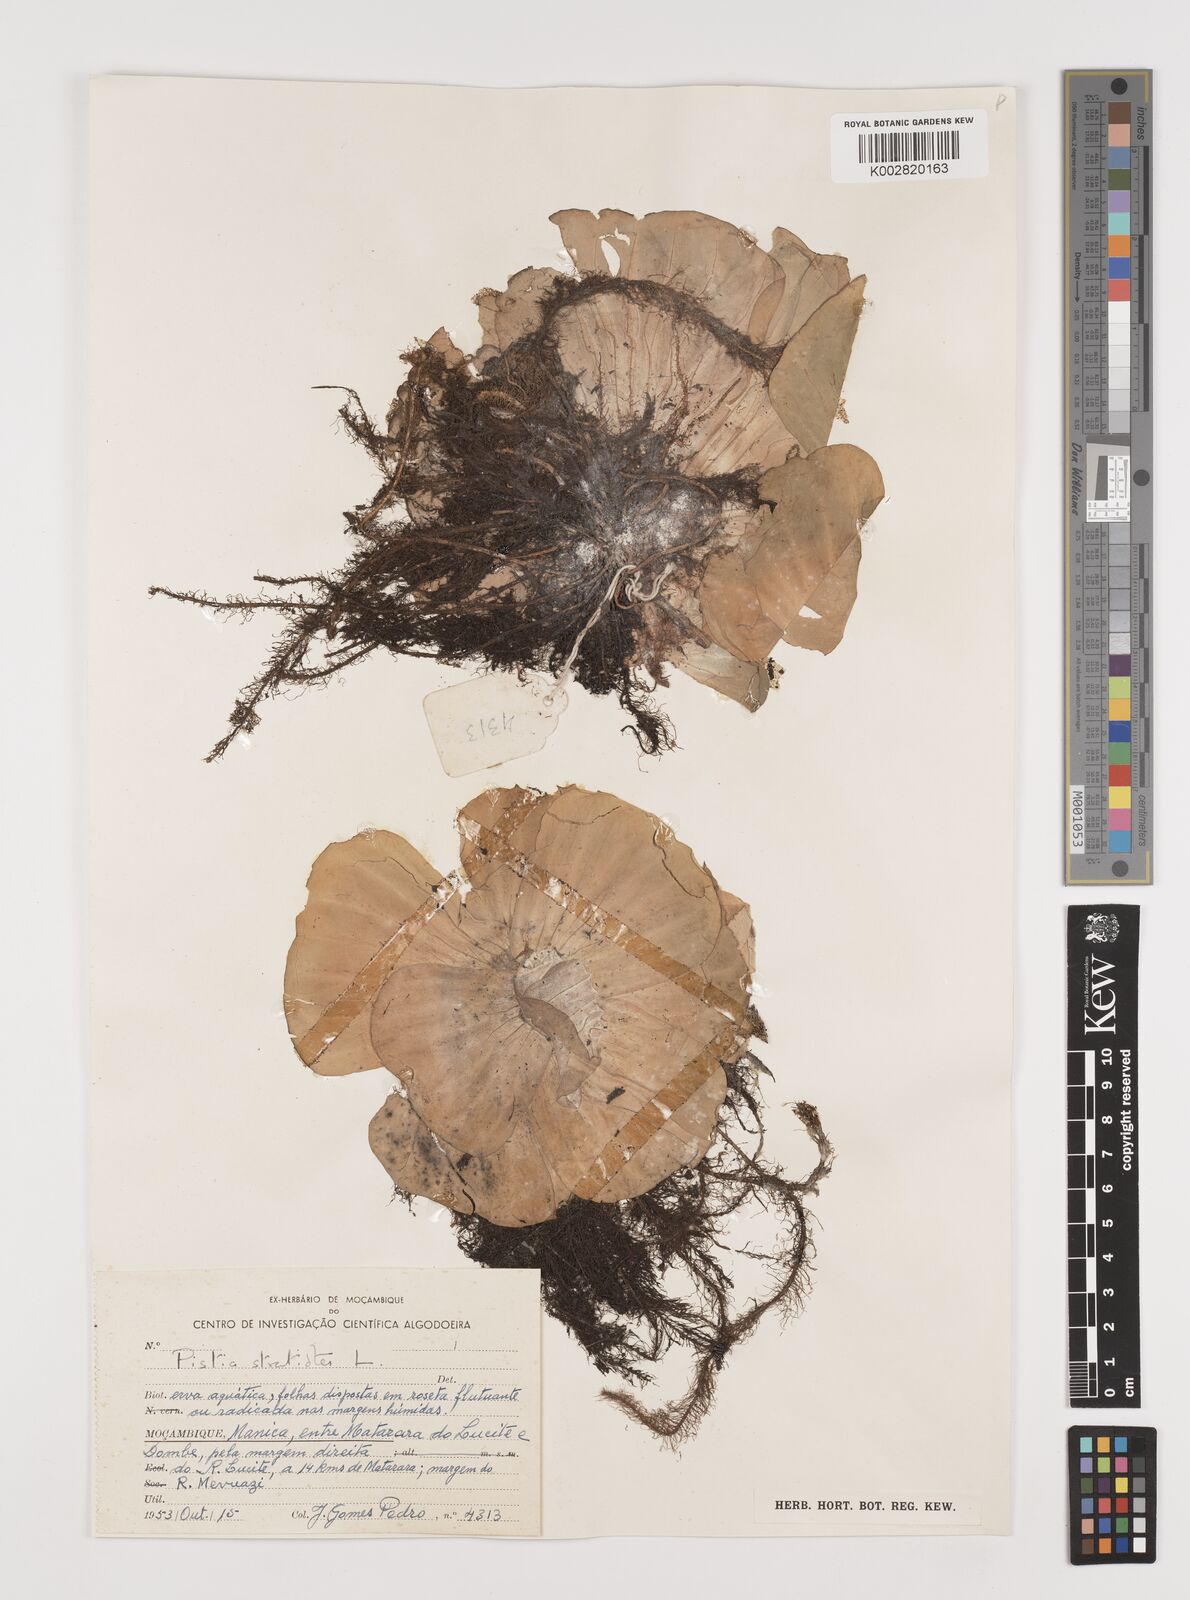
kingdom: Plantae
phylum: Tracheophyta
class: Liliopsida
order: Alismatales
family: Araceae
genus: Pistia
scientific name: Pistia stratiotes
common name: Water lettuce
